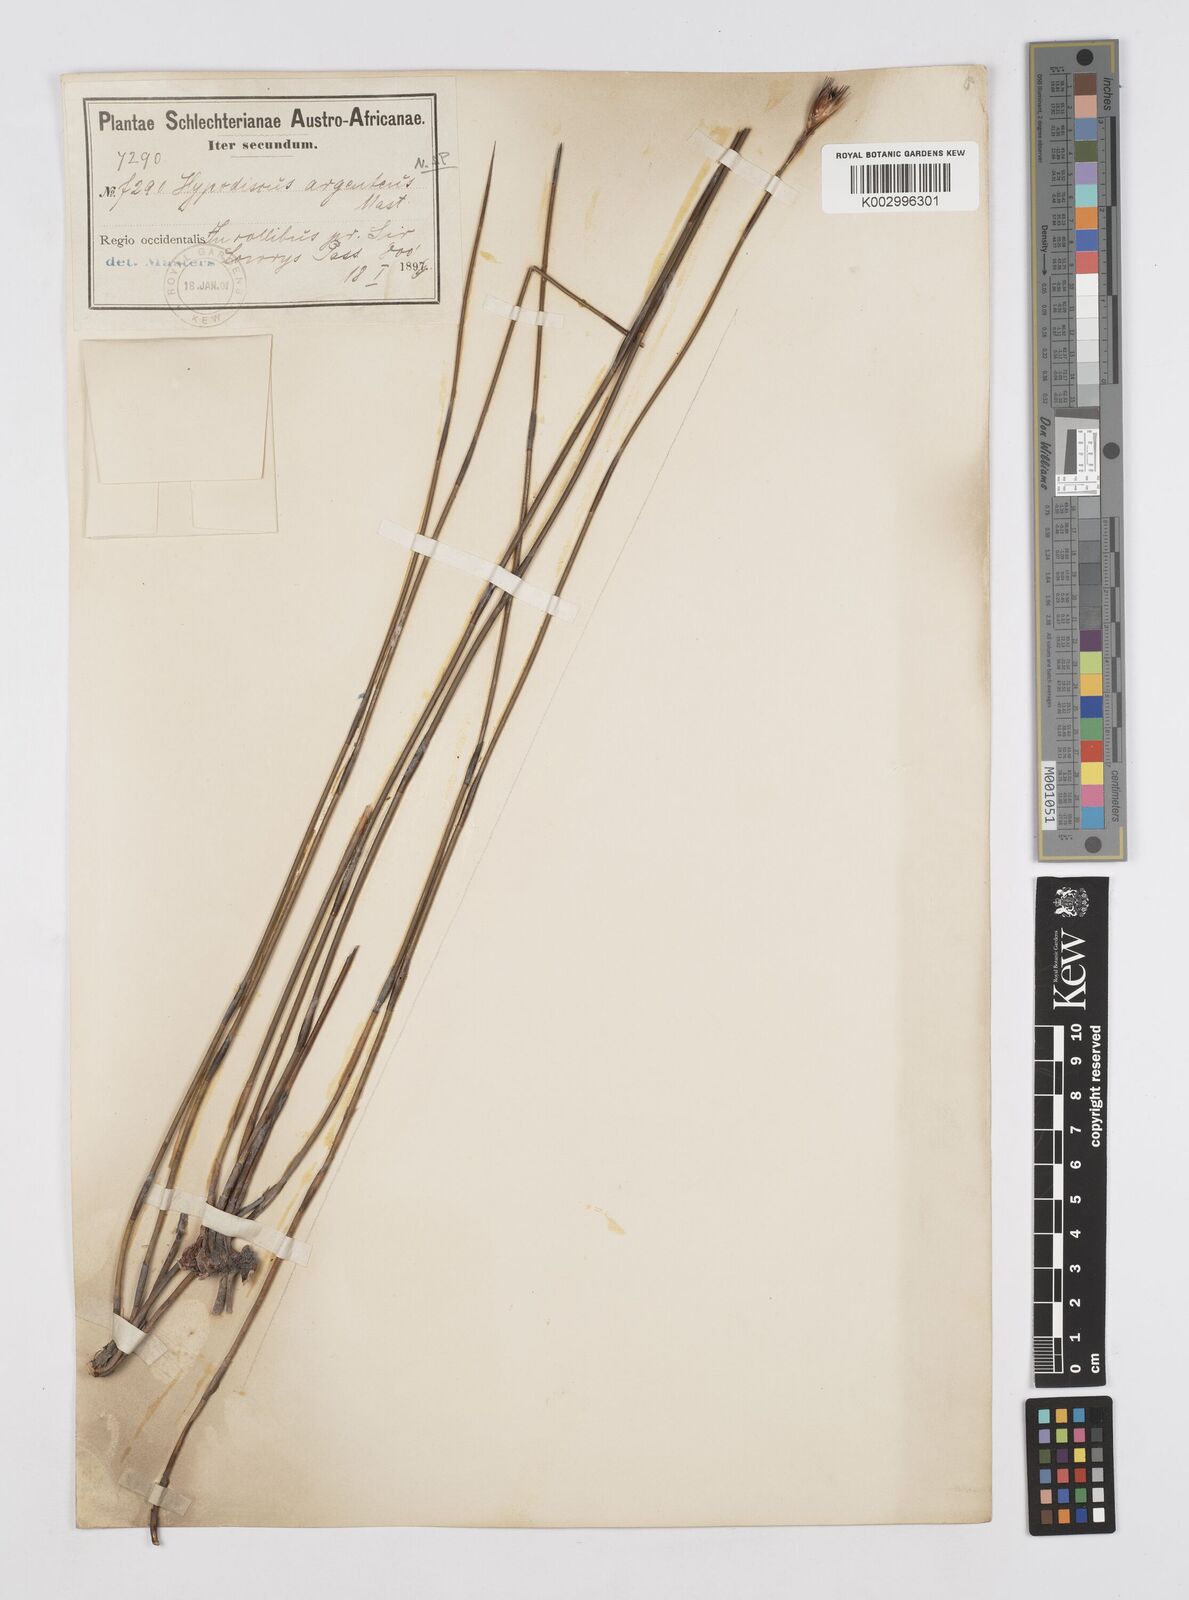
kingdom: Plantae
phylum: Tracheophyta
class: Liliopsida
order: Poales
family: Restionaceae
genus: Hypodiscus
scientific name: Hypodiscus argenteus
